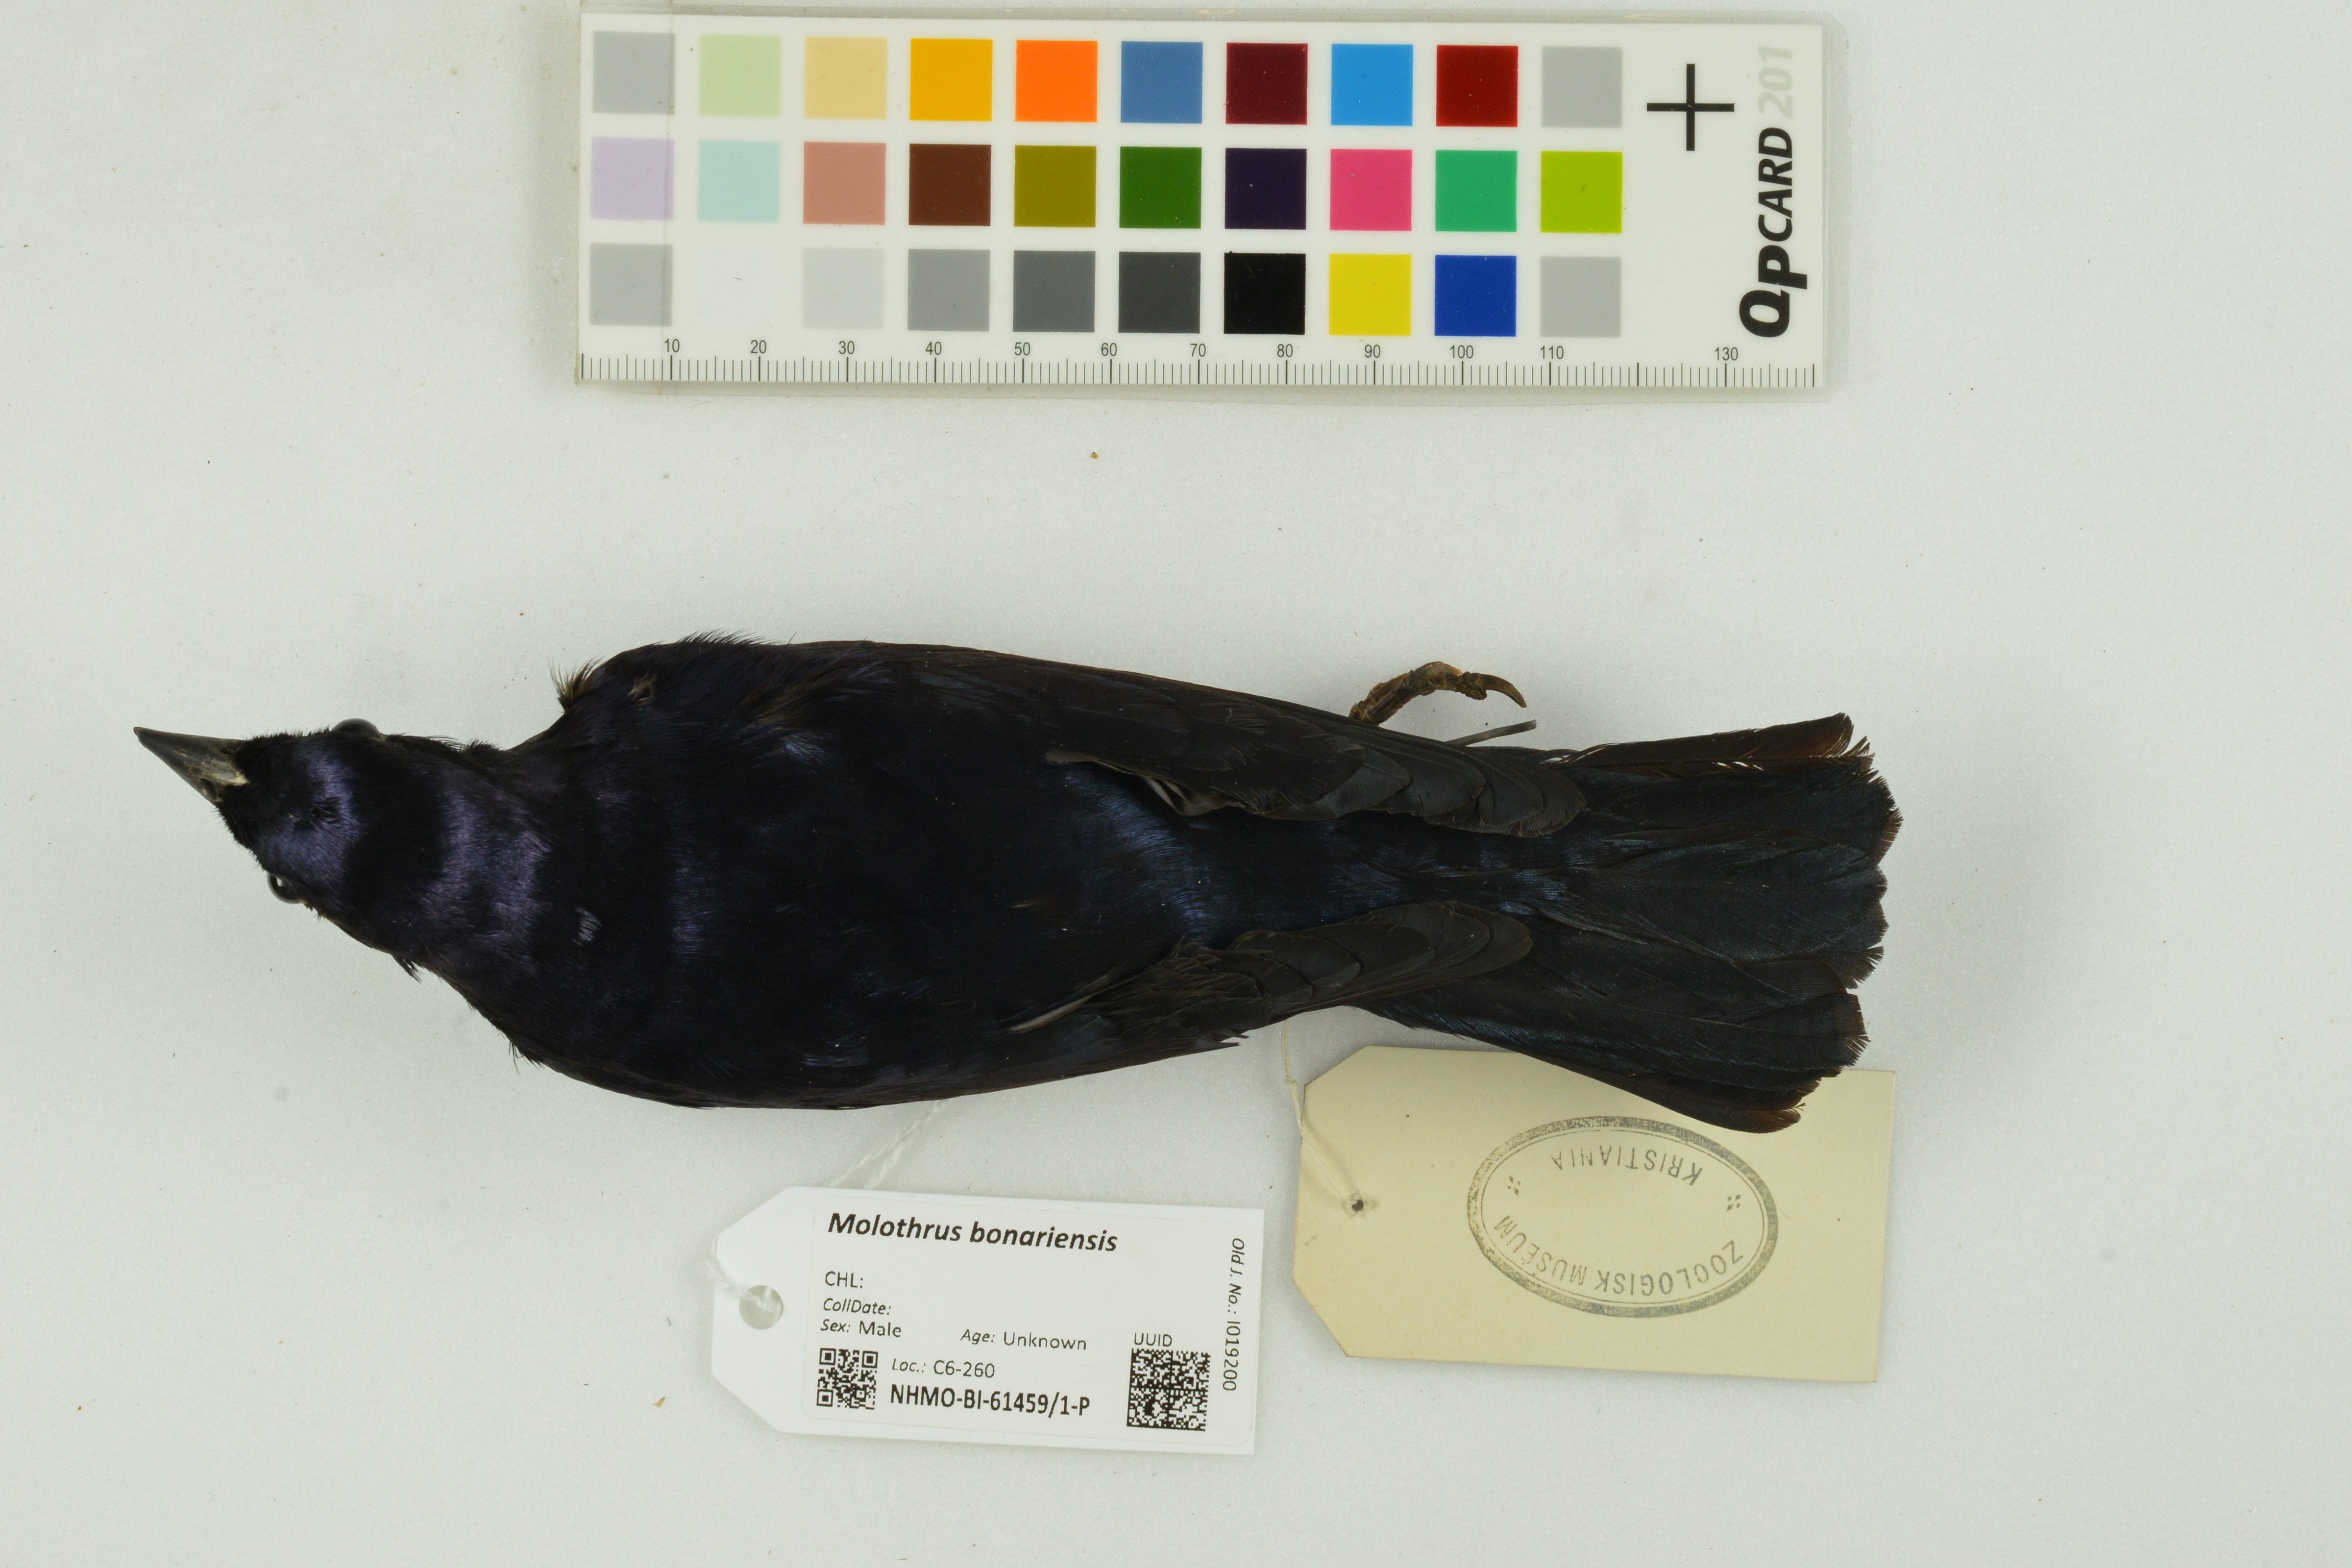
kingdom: Animalia
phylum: Chordata
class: Aves
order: Passeriformes
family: Icteridae
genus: Molothrus
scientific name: Molothrus bonariensis
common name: Shiny cowbird
